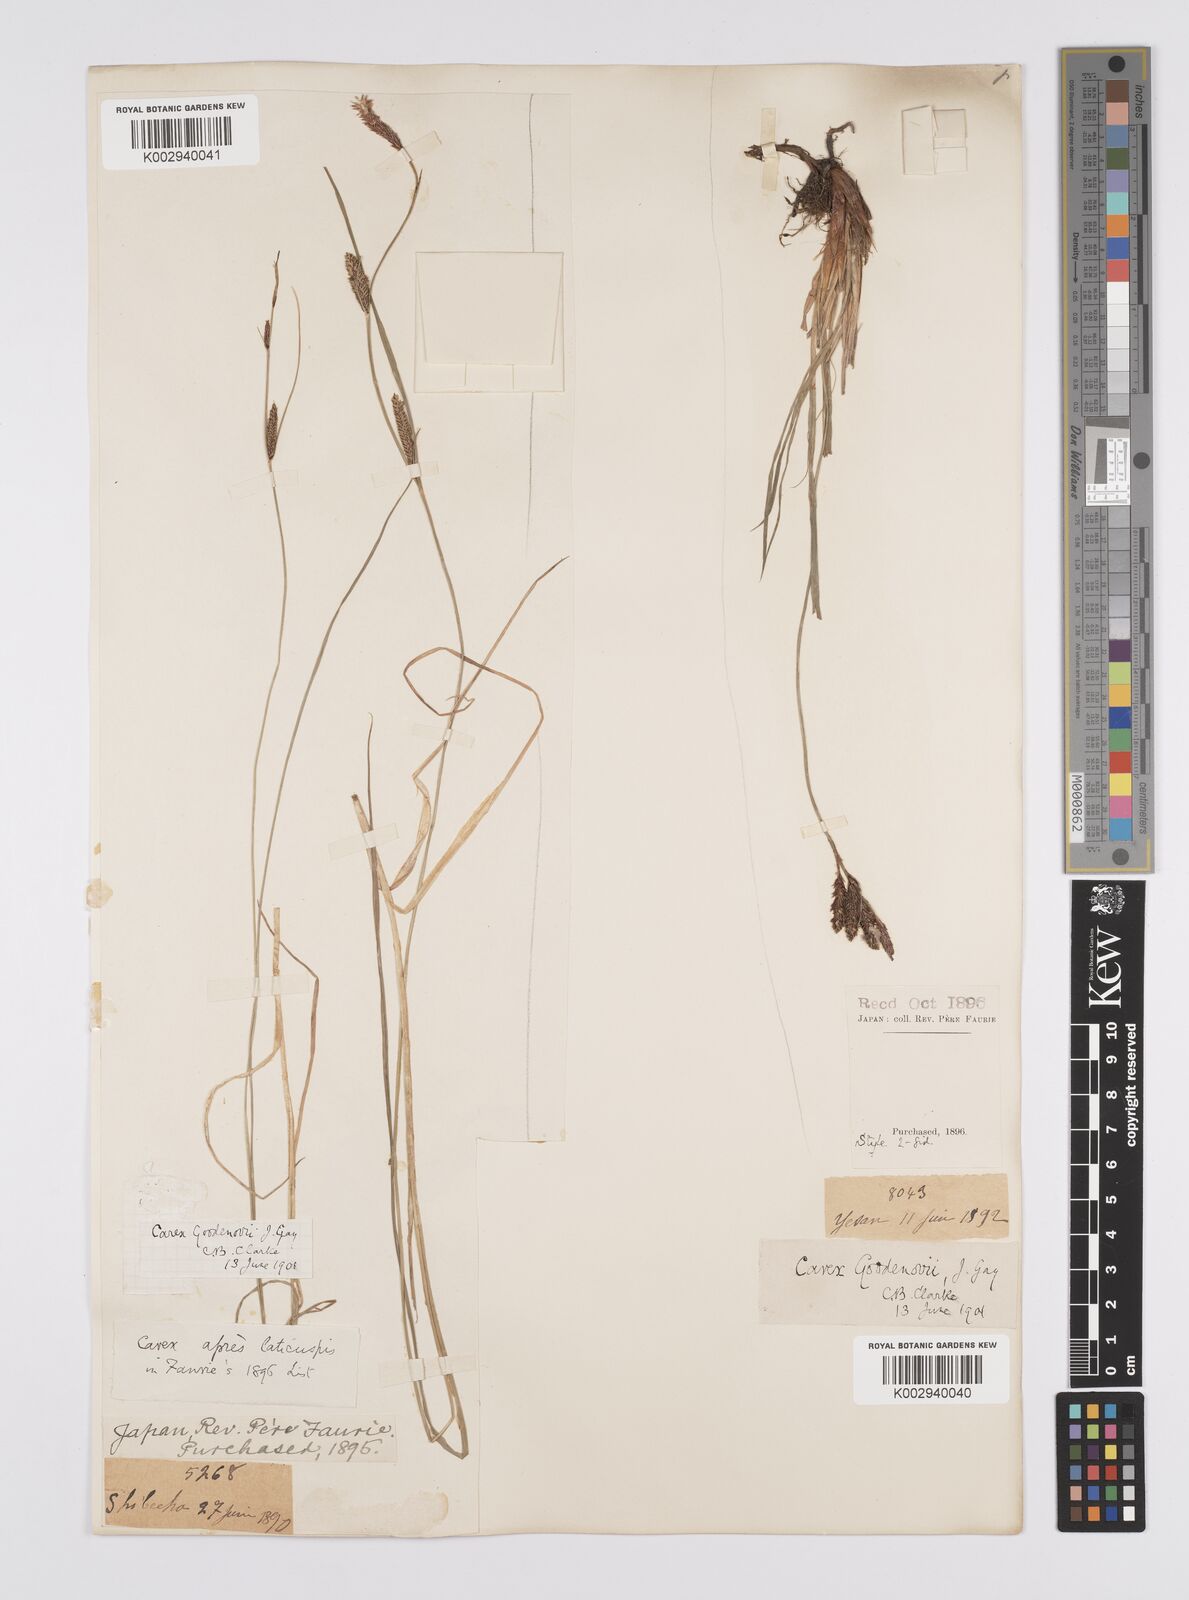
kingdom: Plantae
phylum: Tracheophyta
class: Liliopsida
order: Poales
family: Cyperaceae
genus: Carex
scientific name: Carex thunbergii
